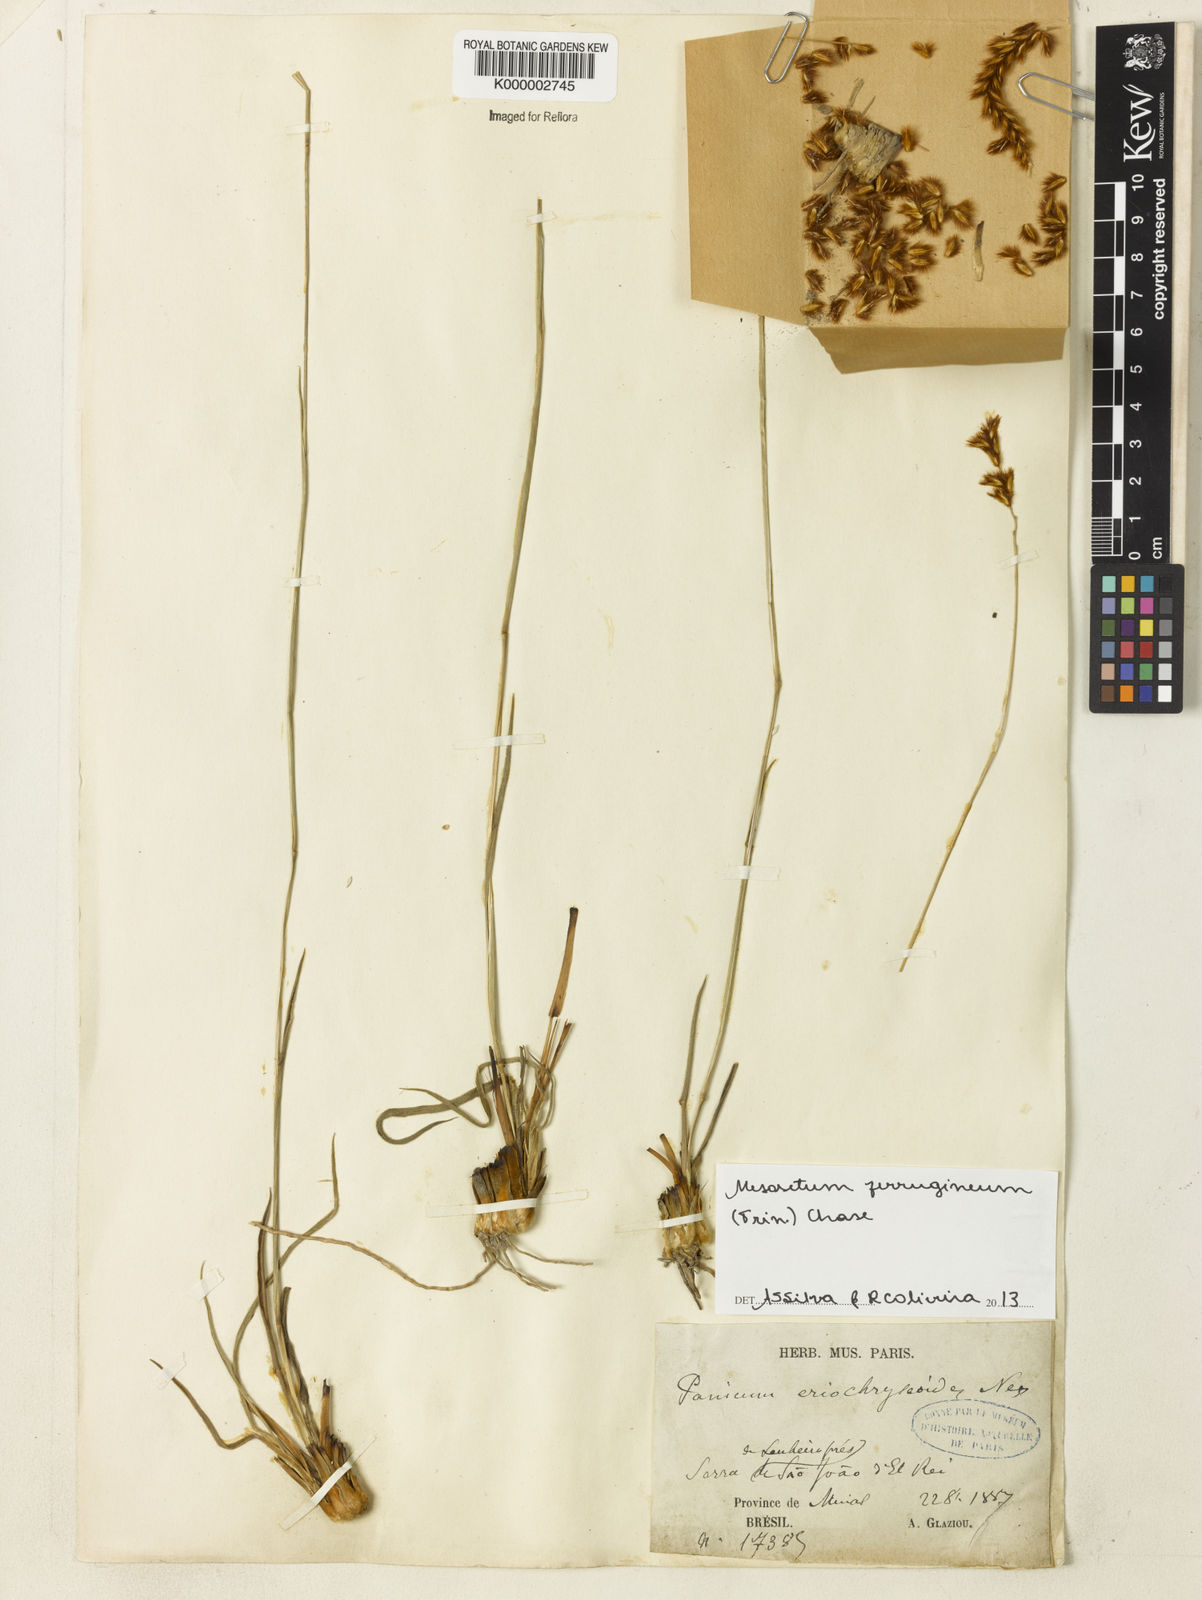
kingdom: Plantae
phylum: Tracheophyta
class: Liliopsida
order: Poales
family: Poaceae
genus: Panicum
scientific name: Panicum
